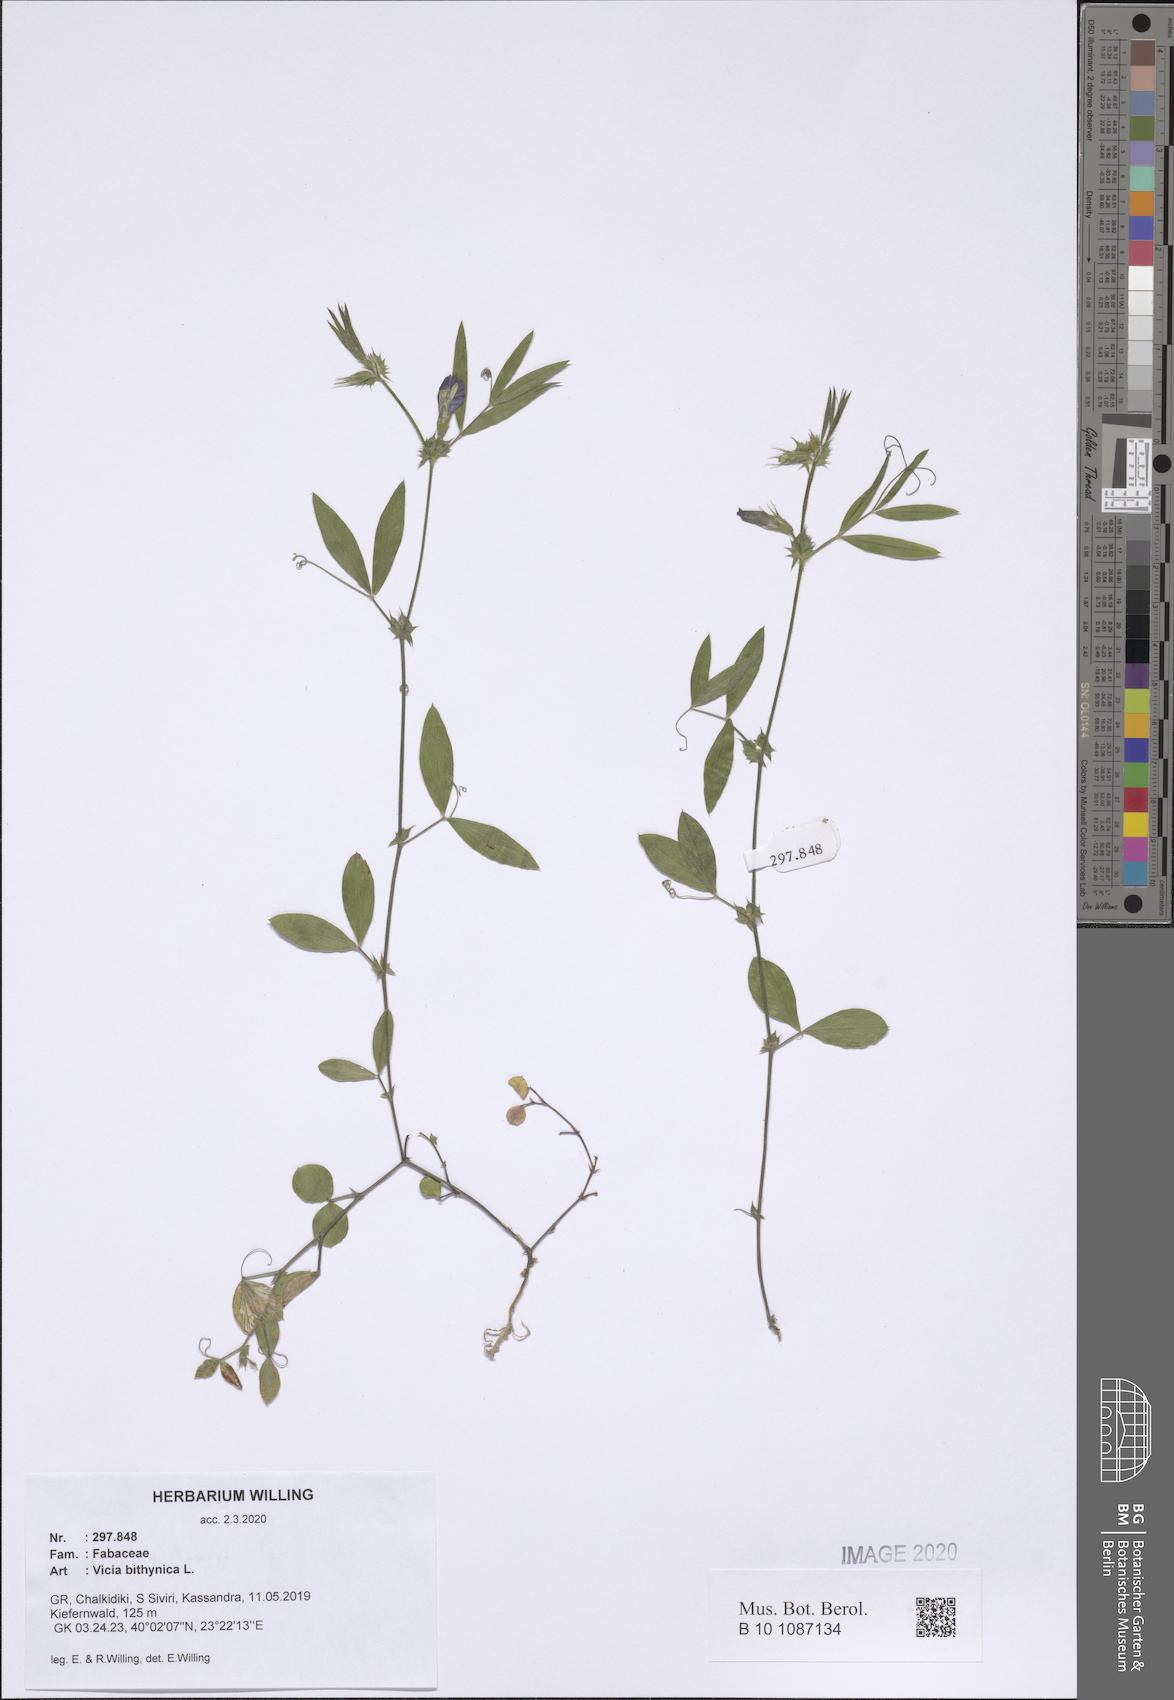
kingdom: Plantae
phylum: Tracheophyta
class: Magnoliopsida
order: Fabales
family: Fabaceae
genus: Vicia
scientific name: Vicia bithynica
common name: Bithynian vetch
